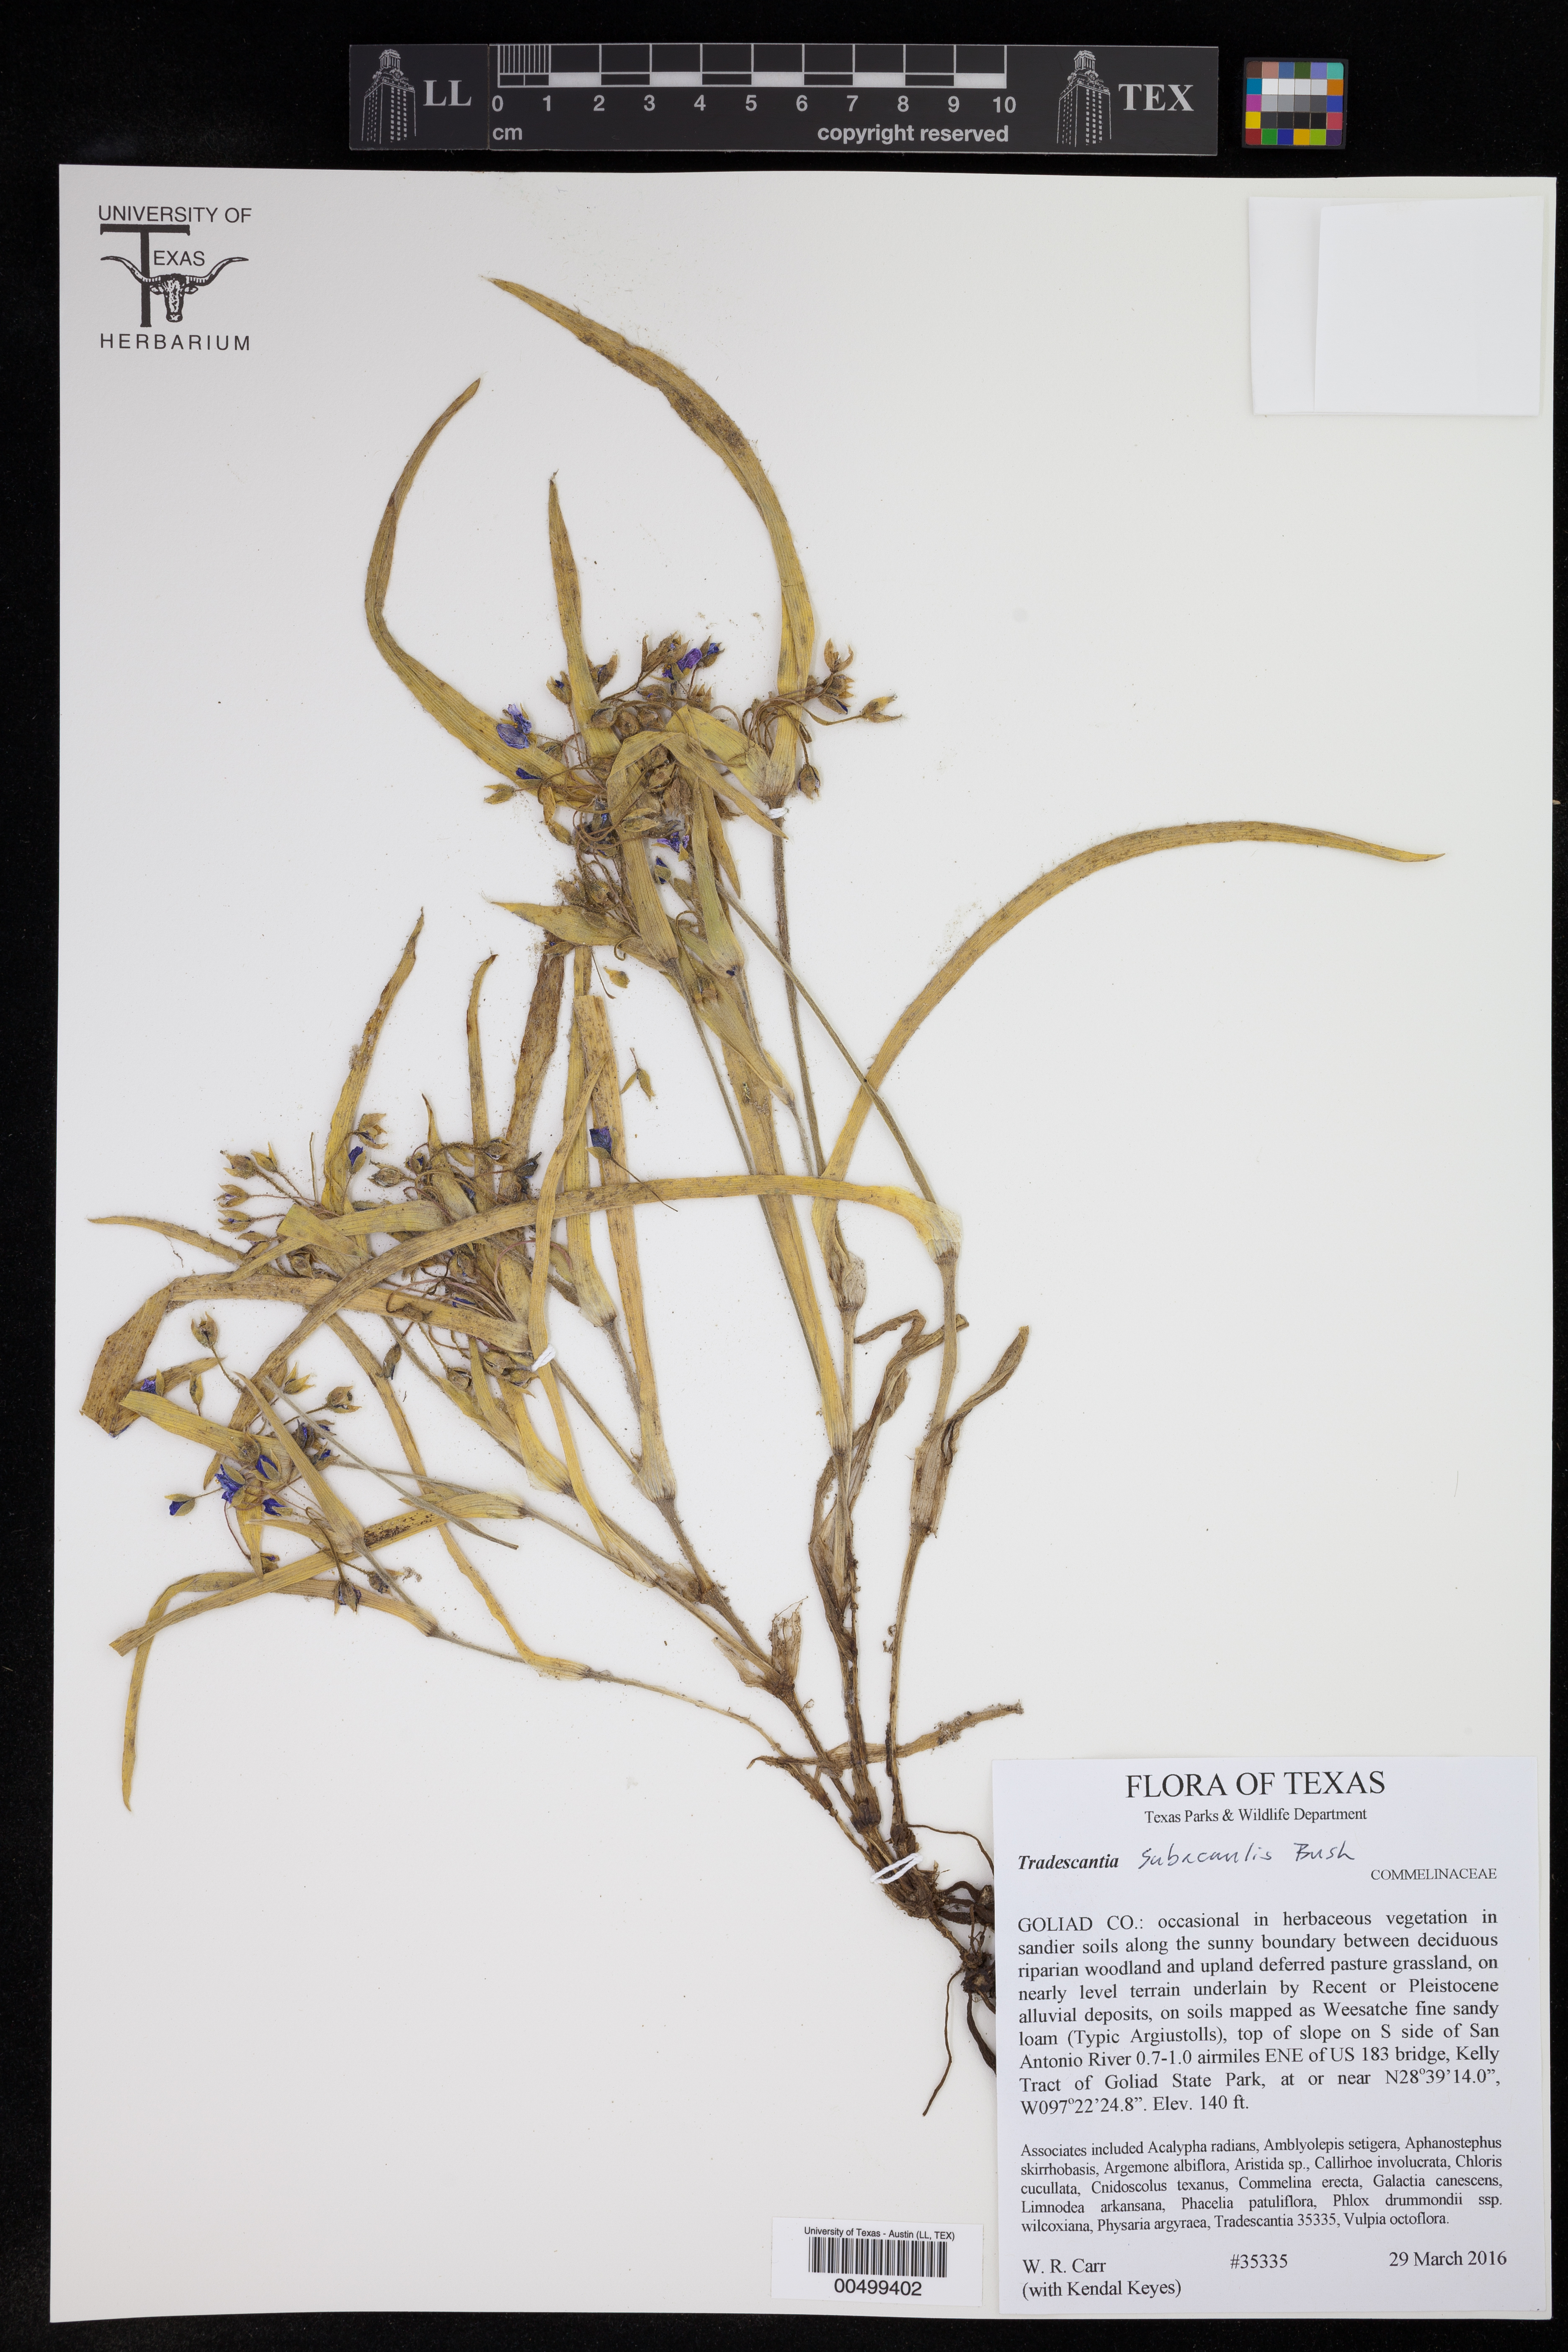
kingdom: Plantae
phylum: Tracheophyta
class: Liliopsida
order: Commelinales
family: Commelinaceae
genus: Tradescantia
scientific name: Tradescantia subacaulis
